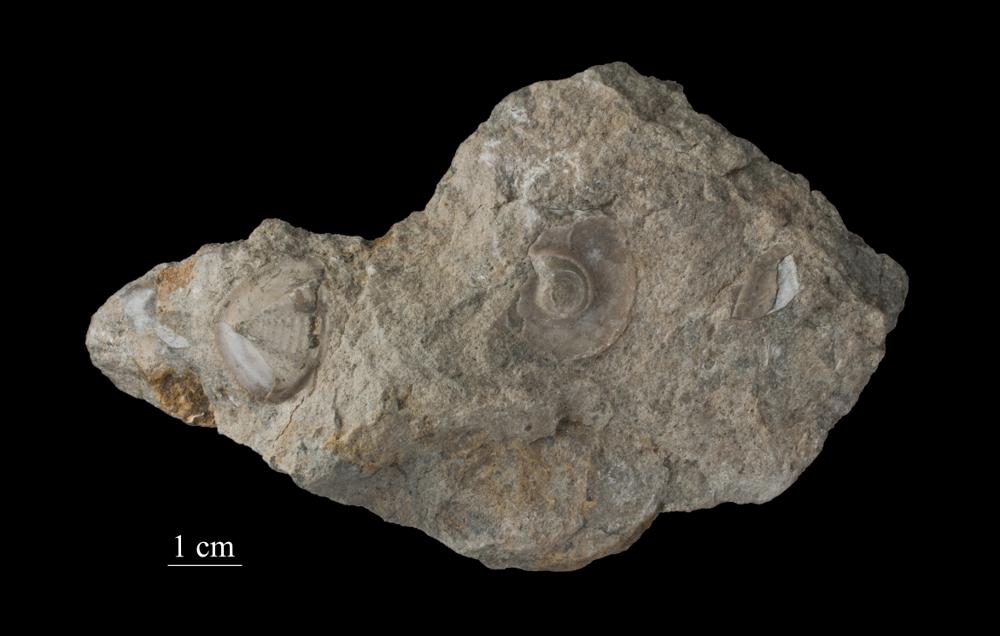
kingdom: Animalia
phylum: Mollusca
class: Gastropoda
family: Lesueurillidae
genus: Pararaphistoma
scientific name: Pararaphistoma Raphistoma schmidti
